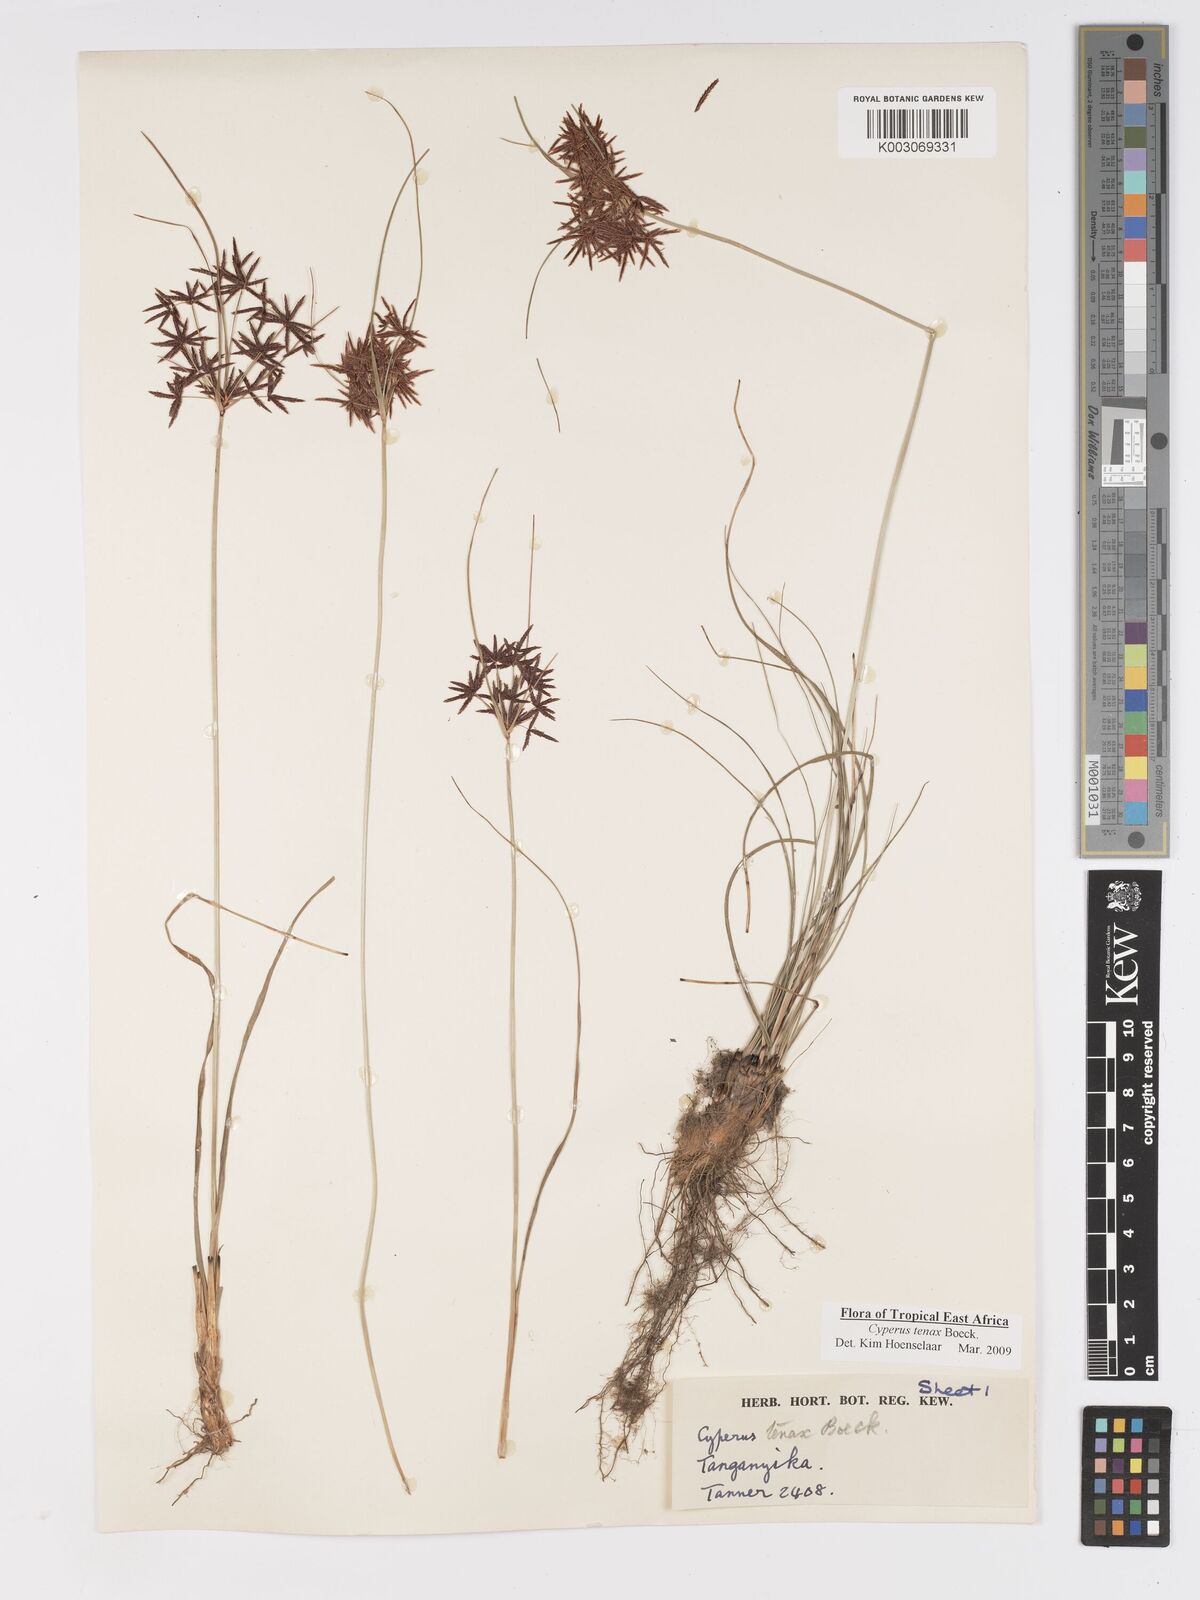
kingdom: Plantae
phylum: Tracheophyta
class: Liliopsida
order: Poales
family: Cyperaceae
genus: Cyperus
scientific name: Cyperus tenax
